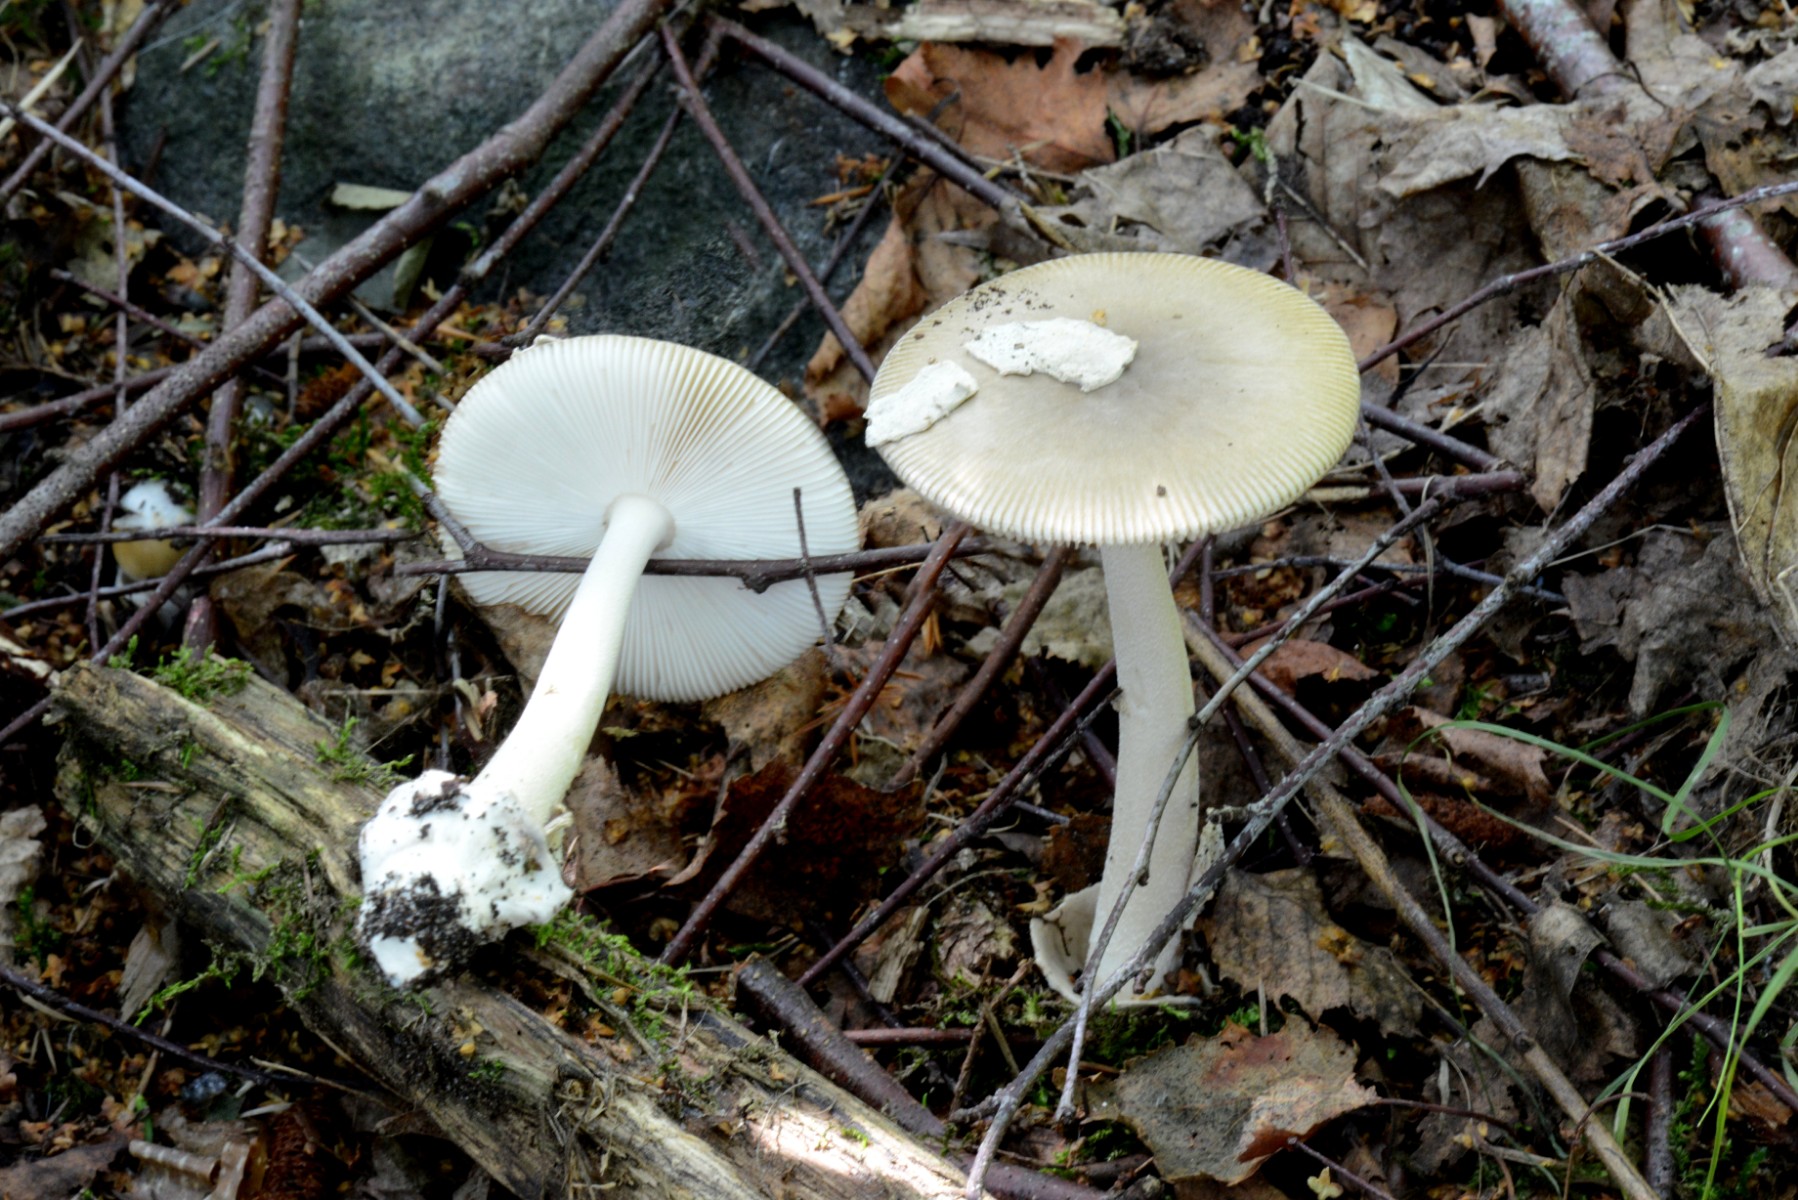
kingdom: Fungi
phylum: Basidiomycota
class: Agaricomycetes
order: Agaricales
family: Amanitaceae
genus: Amanita
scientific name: Amanita vaginata
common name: grå kam-fluesvamp
